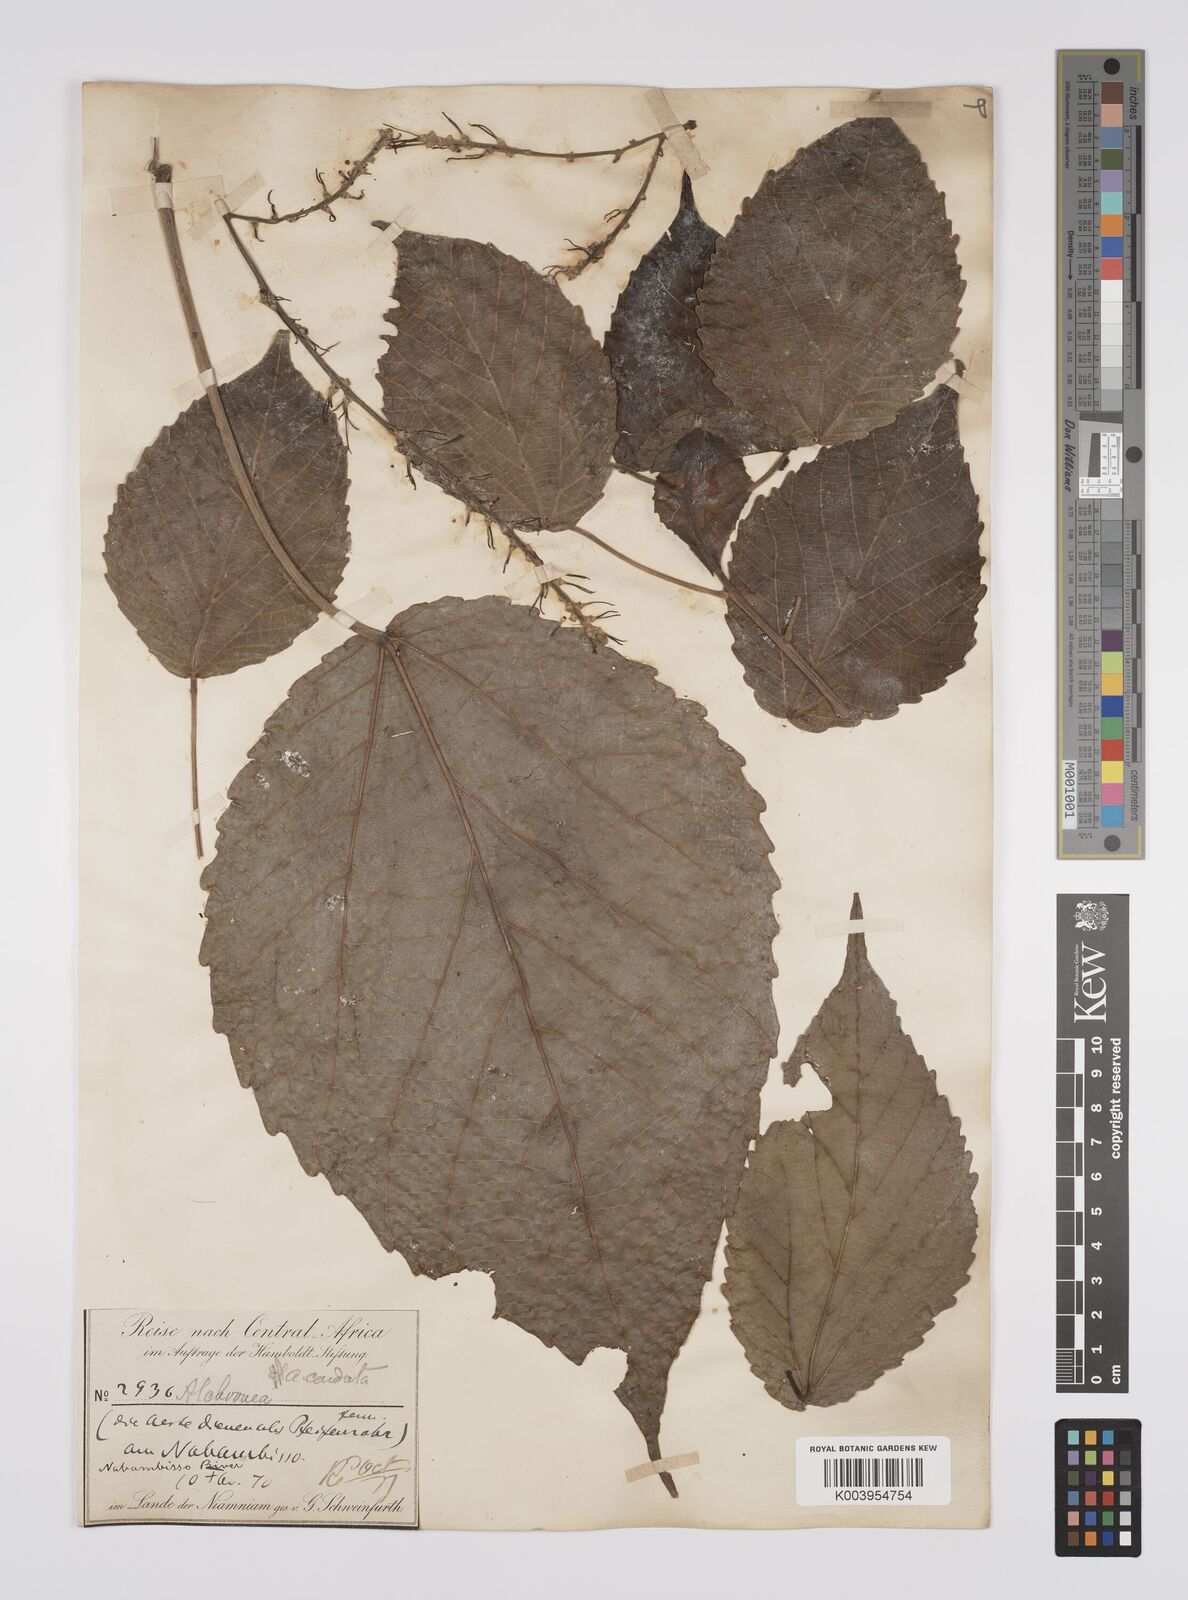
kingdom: Plantae
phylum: Tracheophyta
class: Magnoliopsida
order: Malpighiales
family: Euphorbiaceae
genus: Alchornea
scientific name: Alchornea cordifolia
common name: Christmasbush
